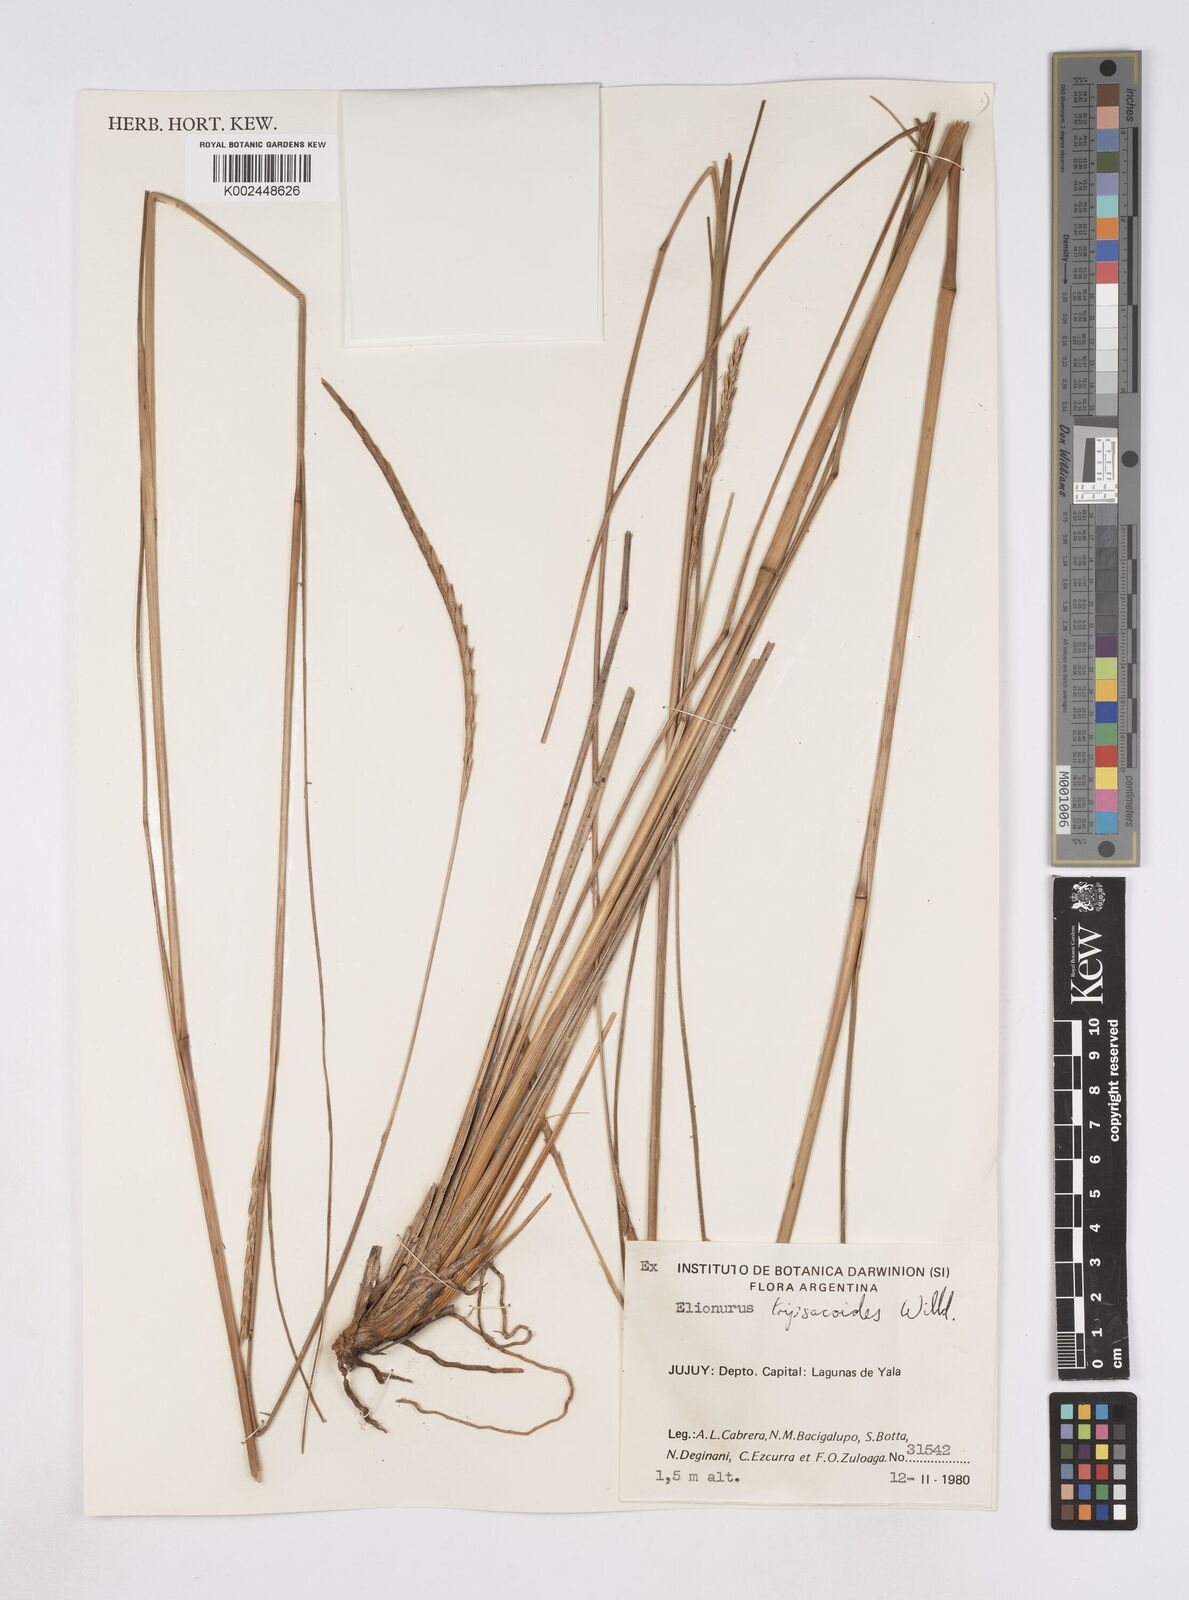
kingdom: Plantae
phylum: Tracheophyta
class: Liliopsida
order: Poales
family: Poaceae
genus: Elionurus
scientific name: Elionurus tripsacoides
